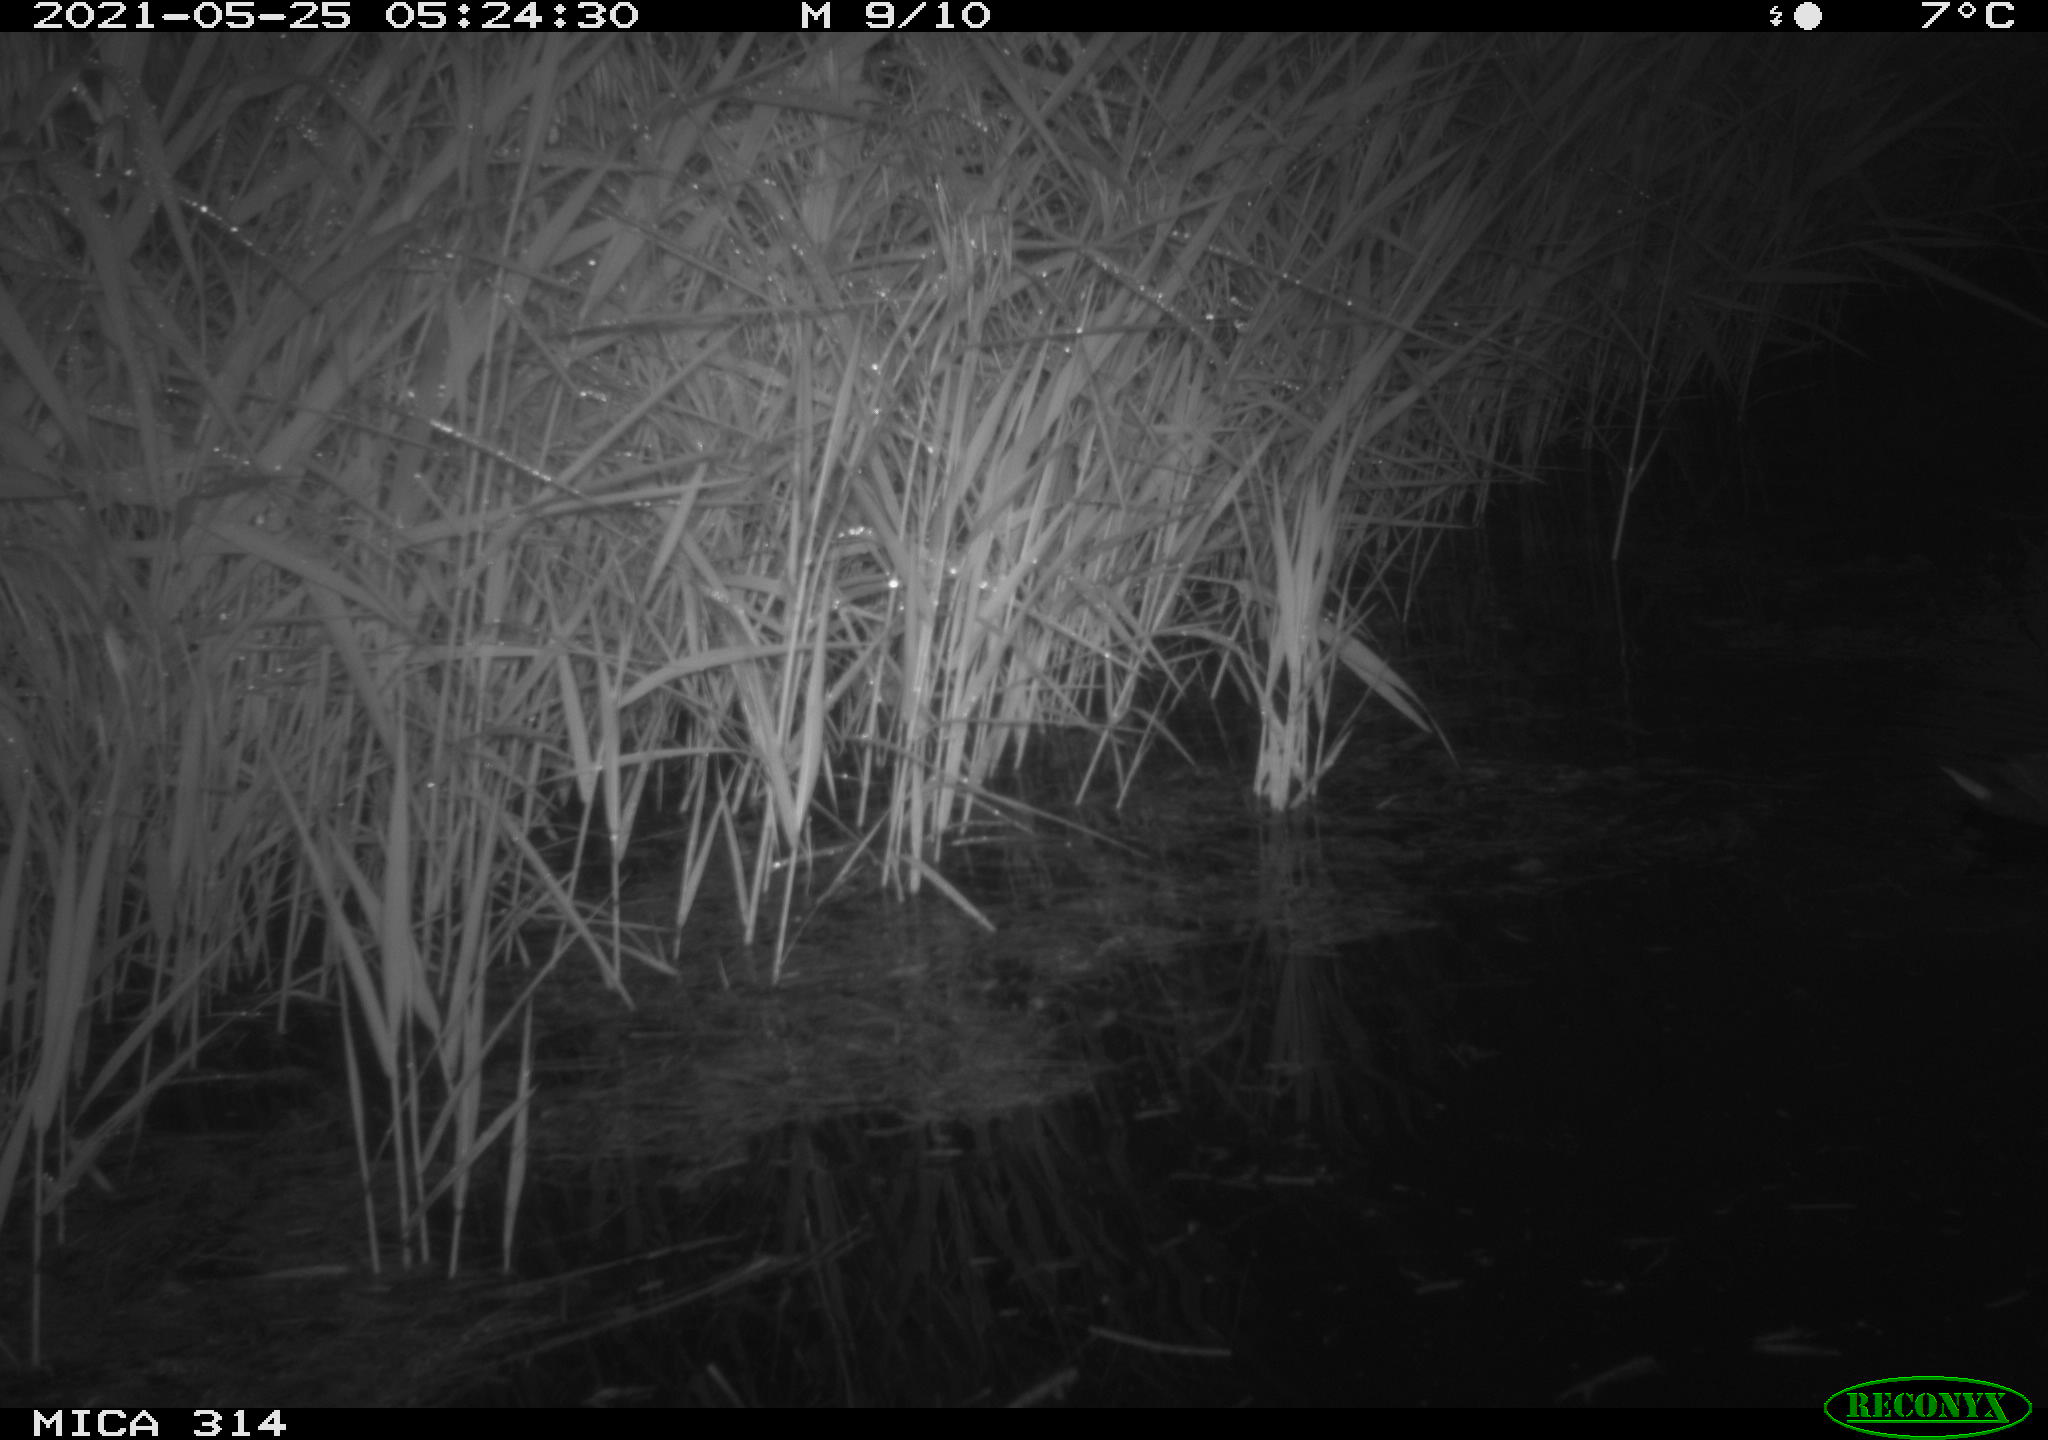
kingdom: Animalia
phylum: Chordata
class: Aves
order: Gruiformes
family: Rallidae
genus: Gallinula
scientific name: Gallinula chloropus
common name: Common moorhen
